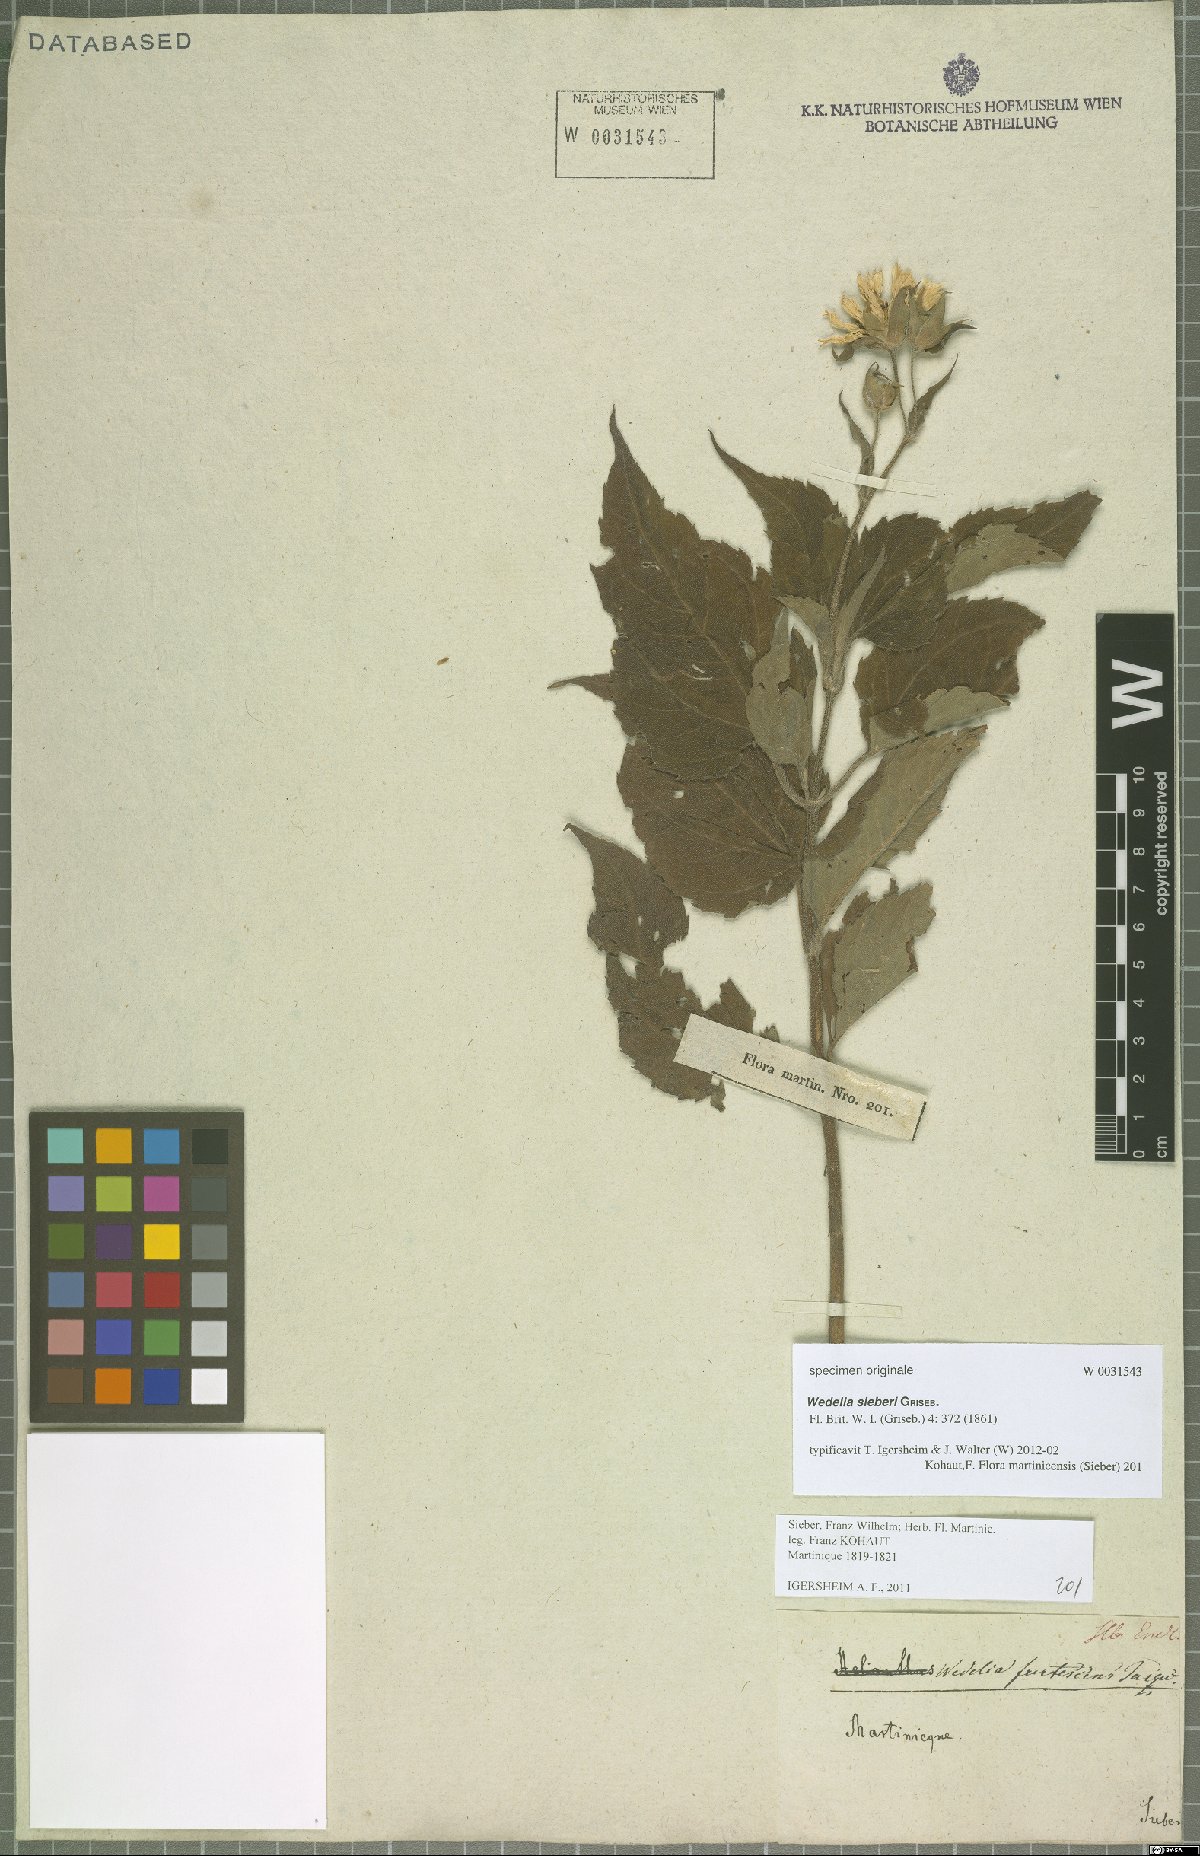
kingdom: Plantae
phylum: Tracheophyta
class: Magnoliopsida
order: Asterales
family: Asteraceae
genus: Wedelia
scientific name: Wedelia calycina
